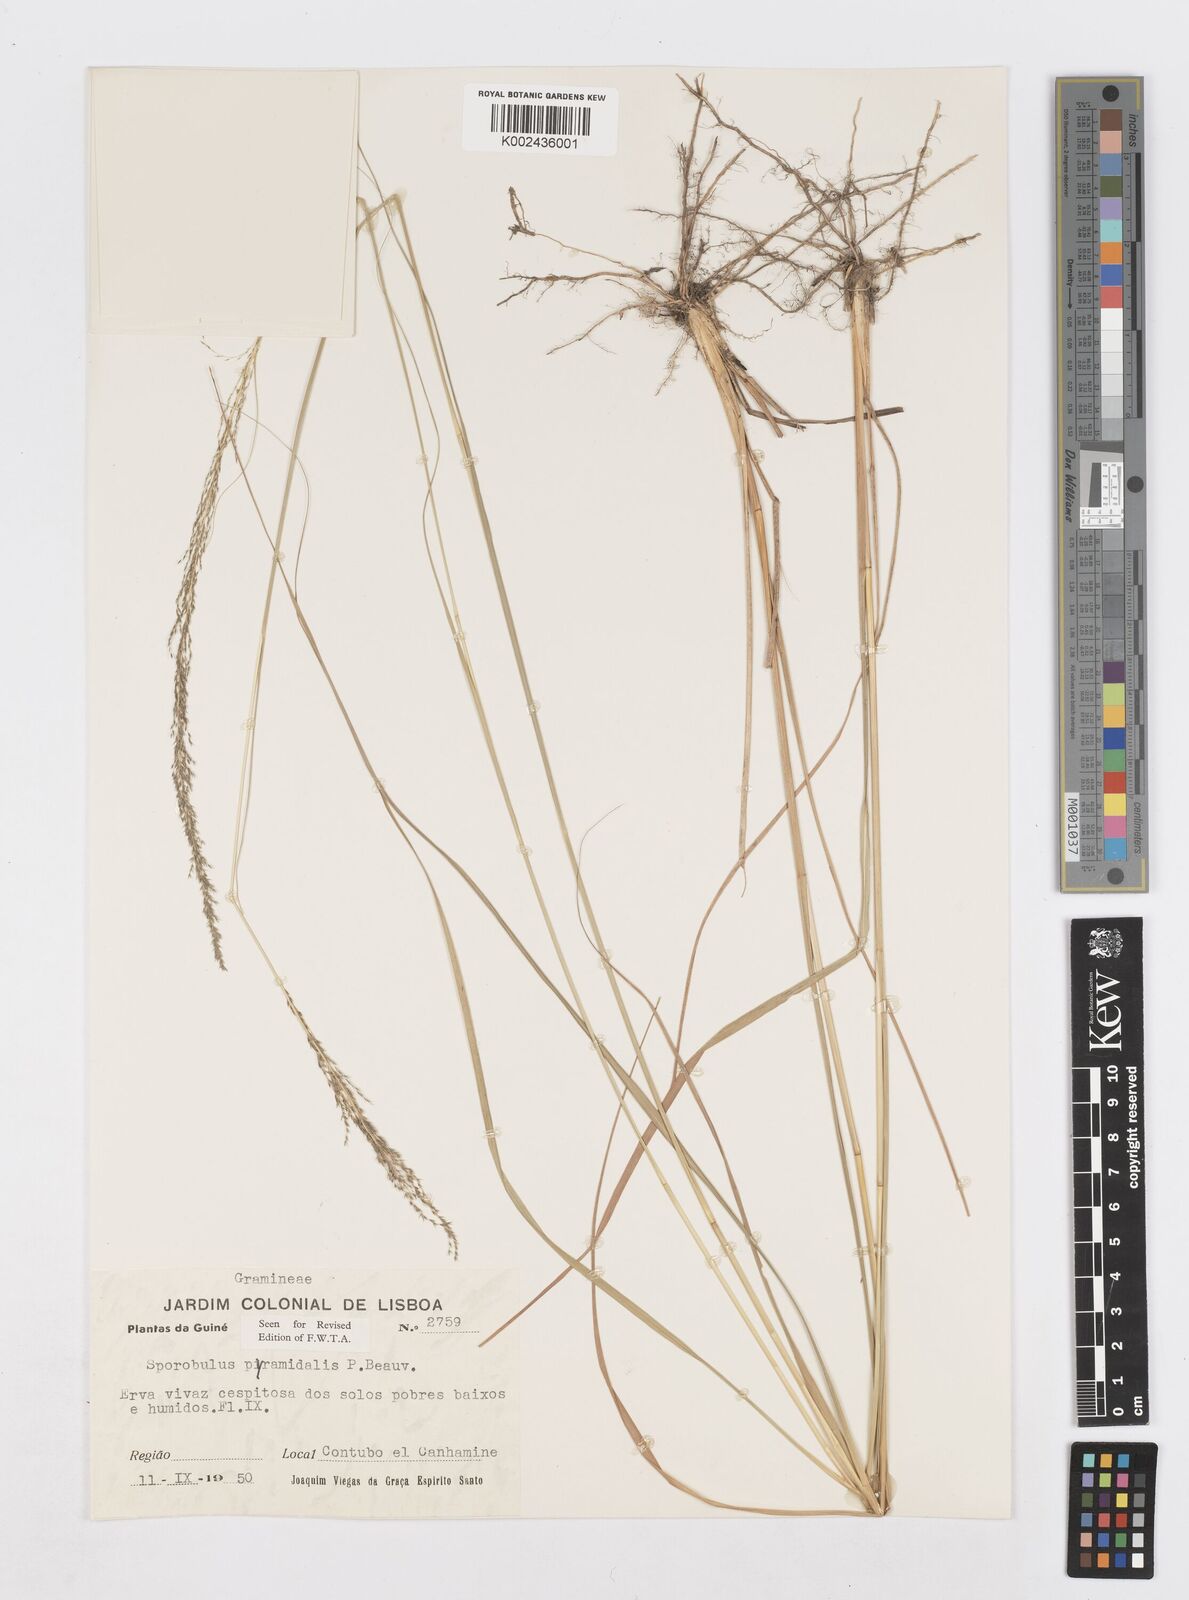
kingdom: Plantae
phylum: Tracheophyta
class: Liliopsida
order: Poales
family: Poaceae
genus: Sporobolus
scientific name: Sporobolus pyramidalis
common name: West indian dropseed
